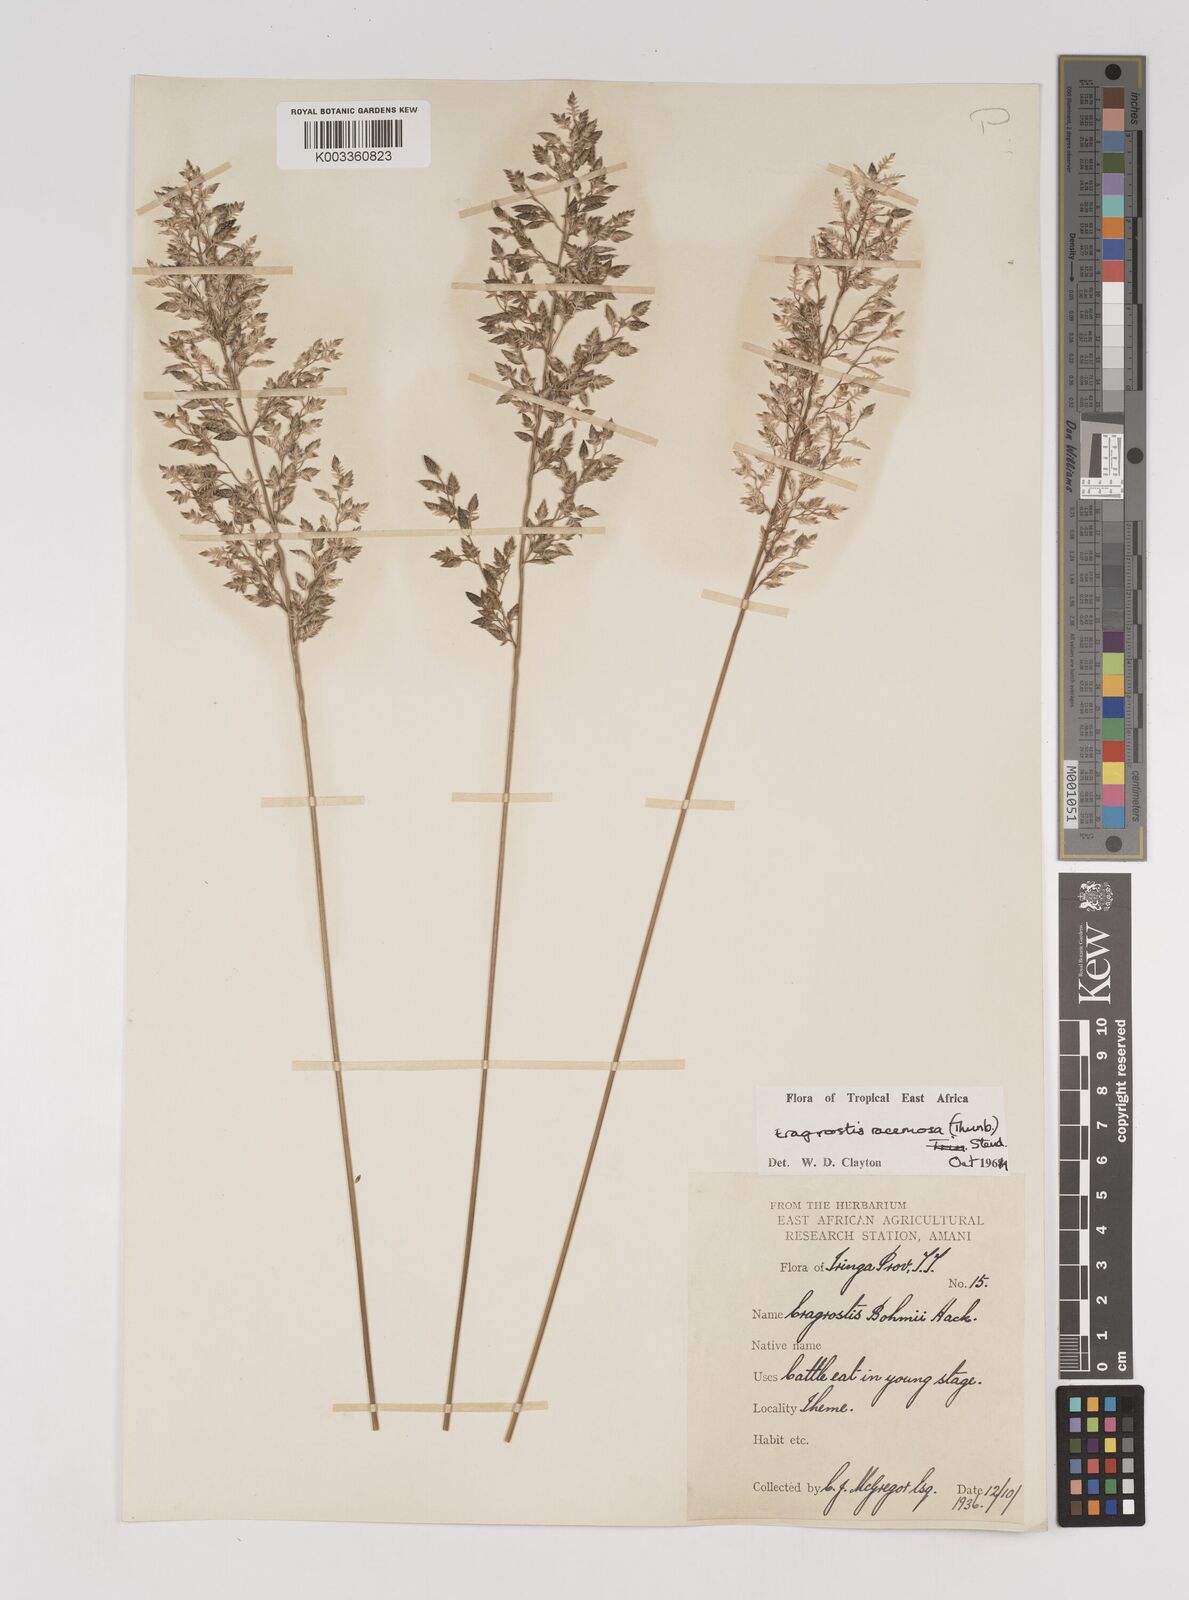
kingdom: Plantae
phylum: Tracheophyta
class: Liliopsida
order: Poales
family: Poaceae
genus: Eragrostis
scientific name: Eragrostis racemosa
